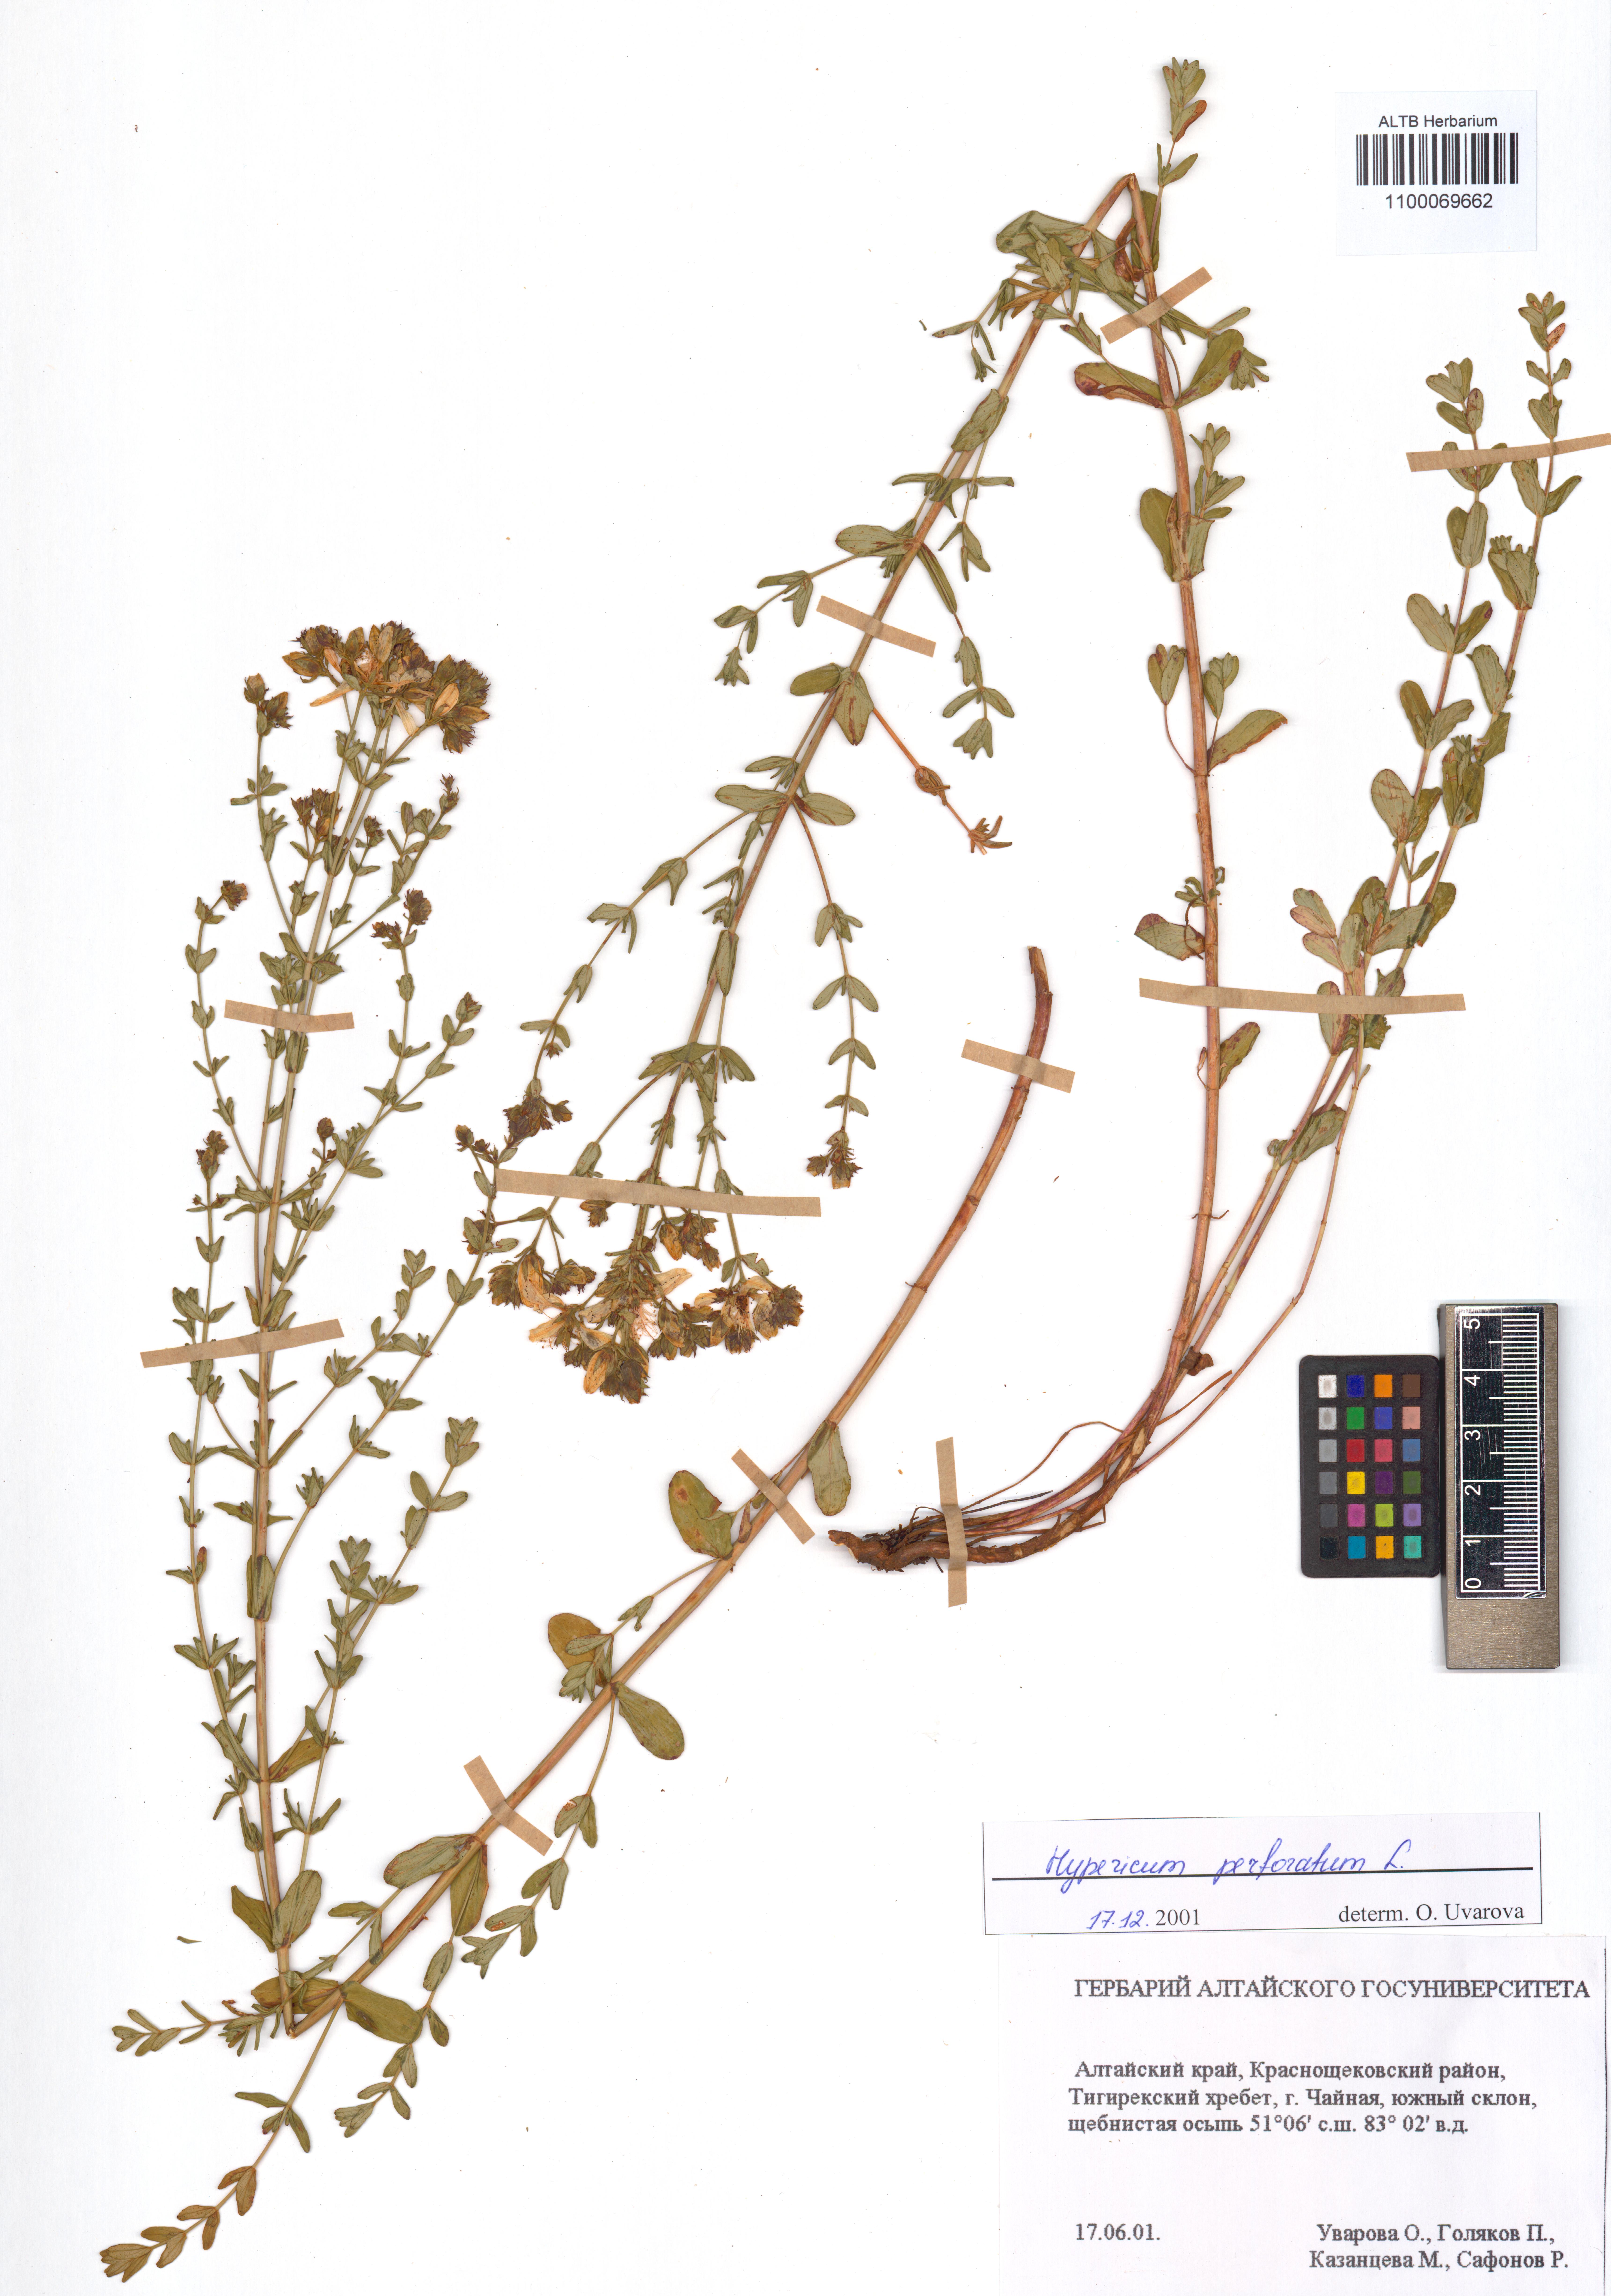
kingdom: Plantae
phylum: Tracheophyta
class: Magnoliopsida
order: Malpighiales
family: Hypericaceae
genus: Hypericum
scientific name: Hypericum perforatum
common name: Common st. johnswort
